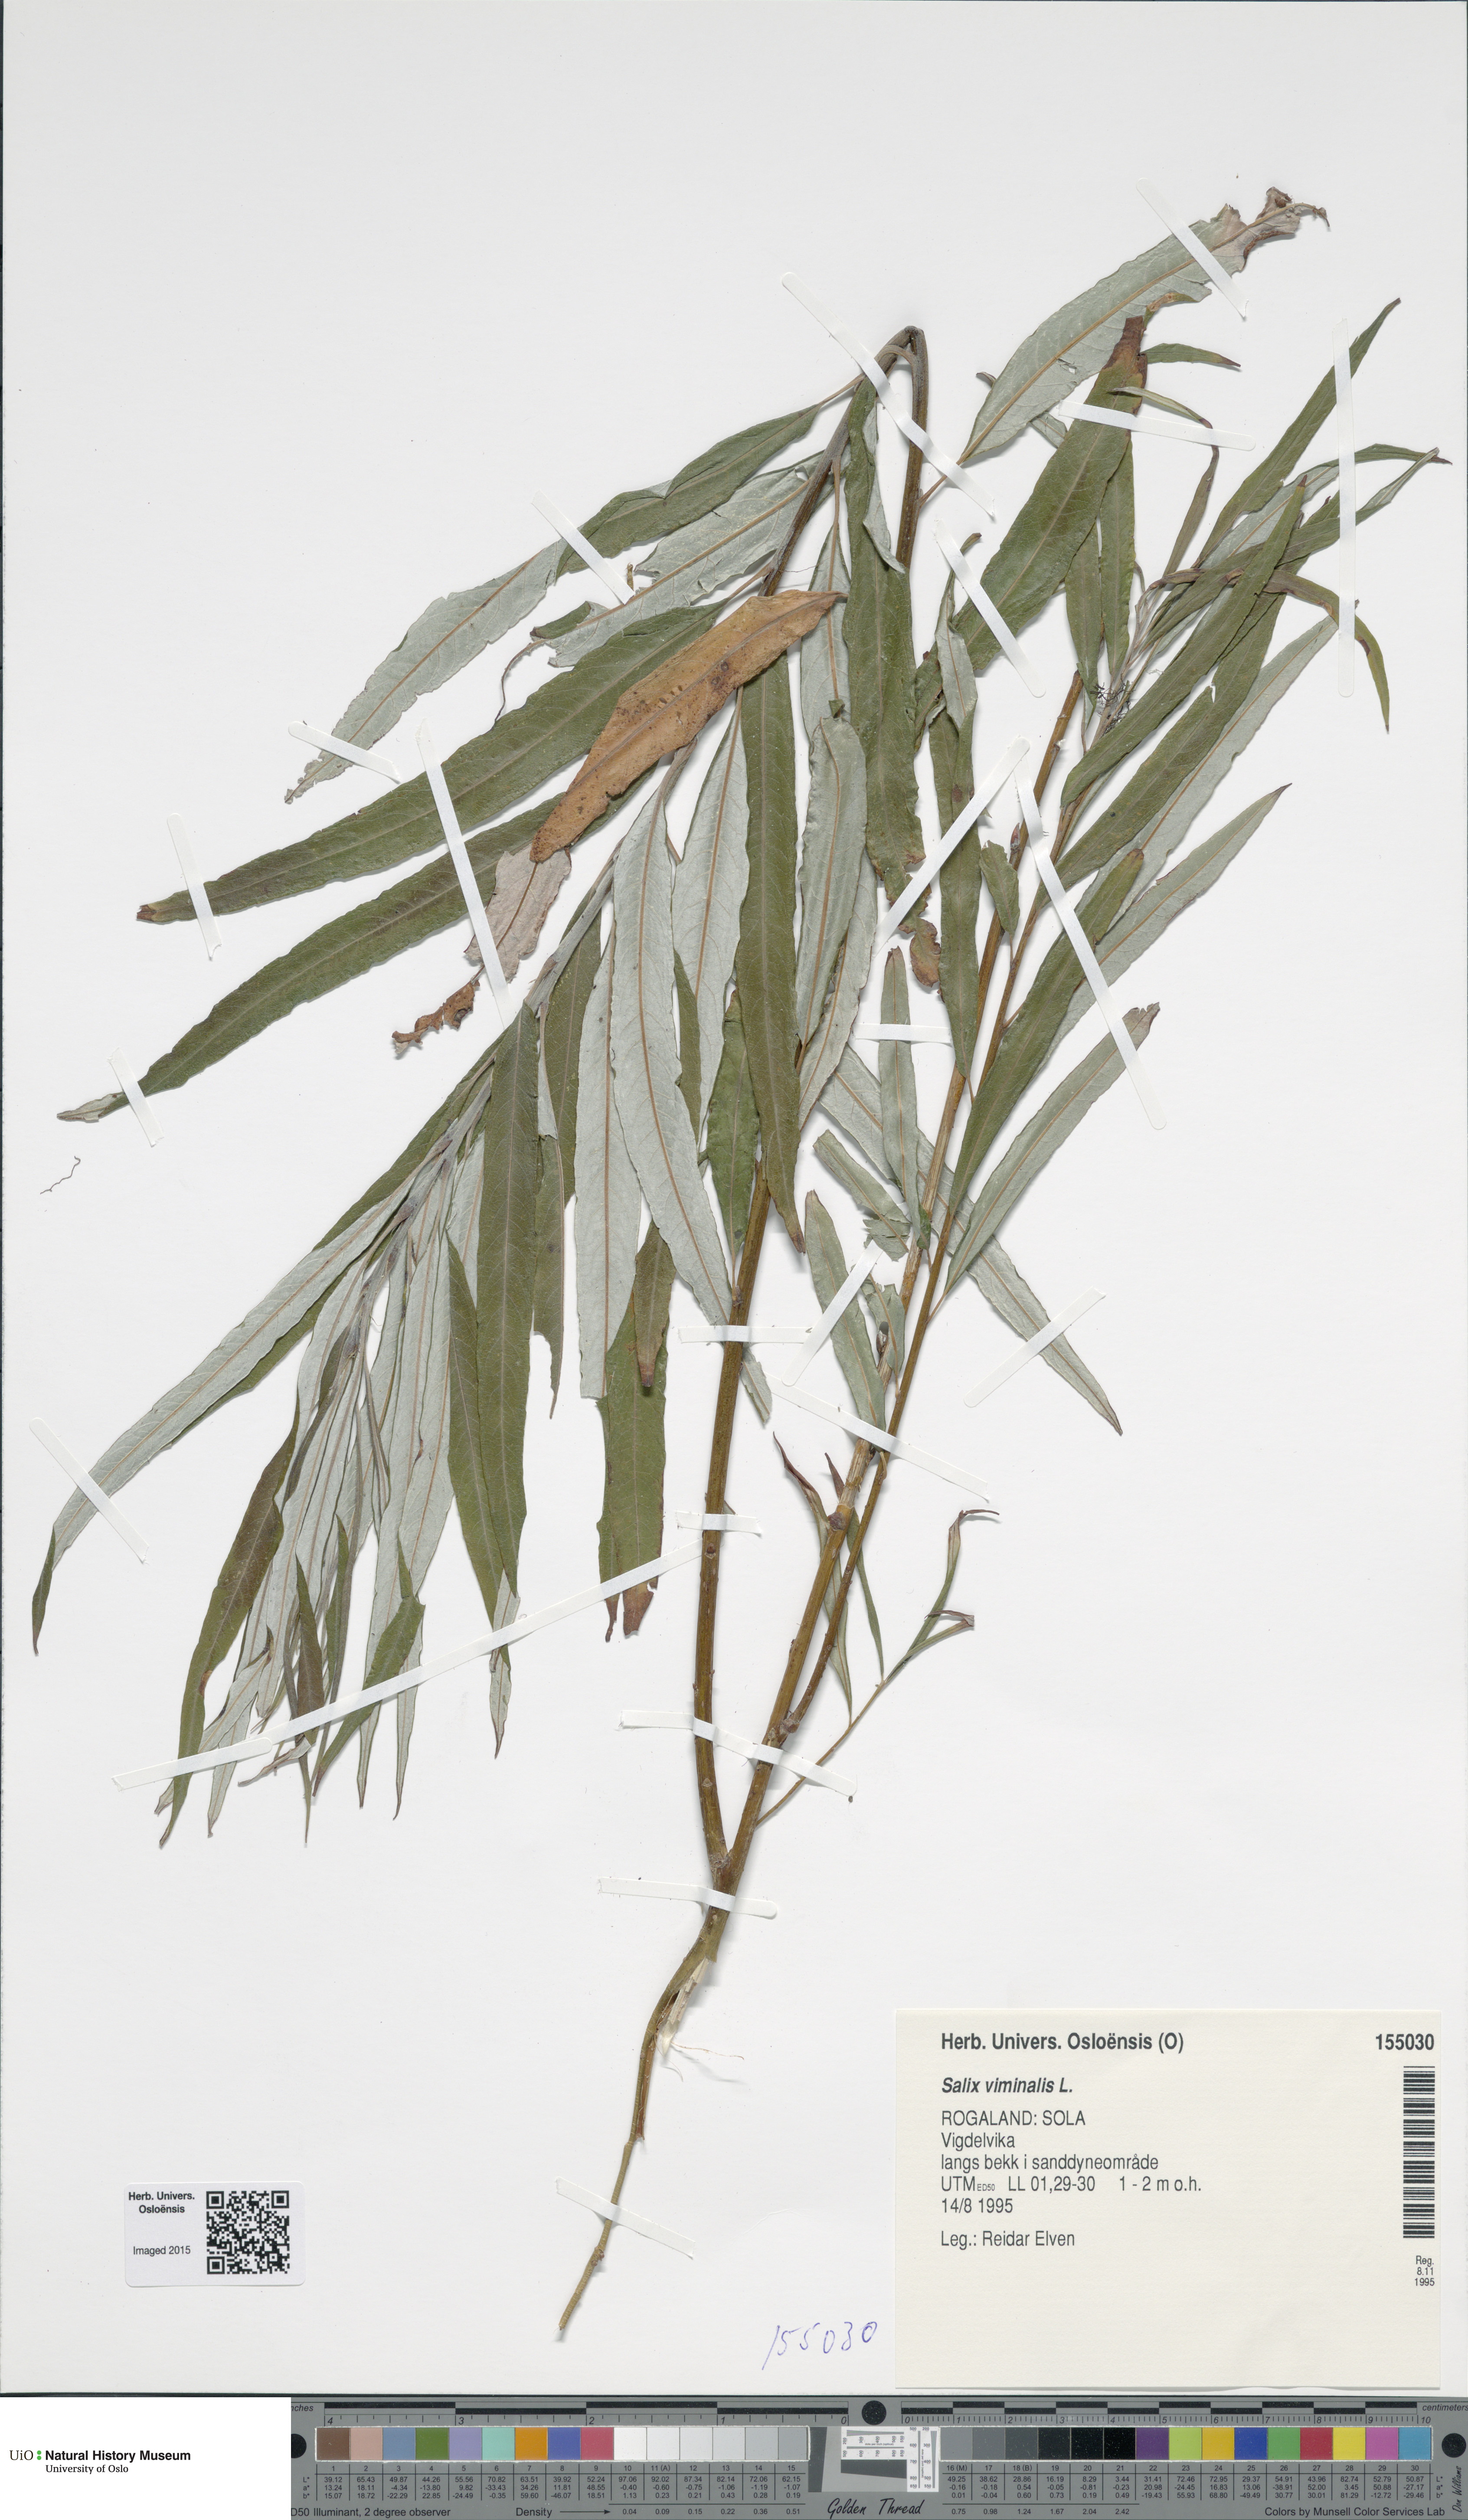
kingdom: Plantae
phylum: Tracheophyta
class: Magnoliopsida
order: Malpighiales
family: Salicaceae
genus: Salix
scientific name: Salix viminalis
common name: Osier
